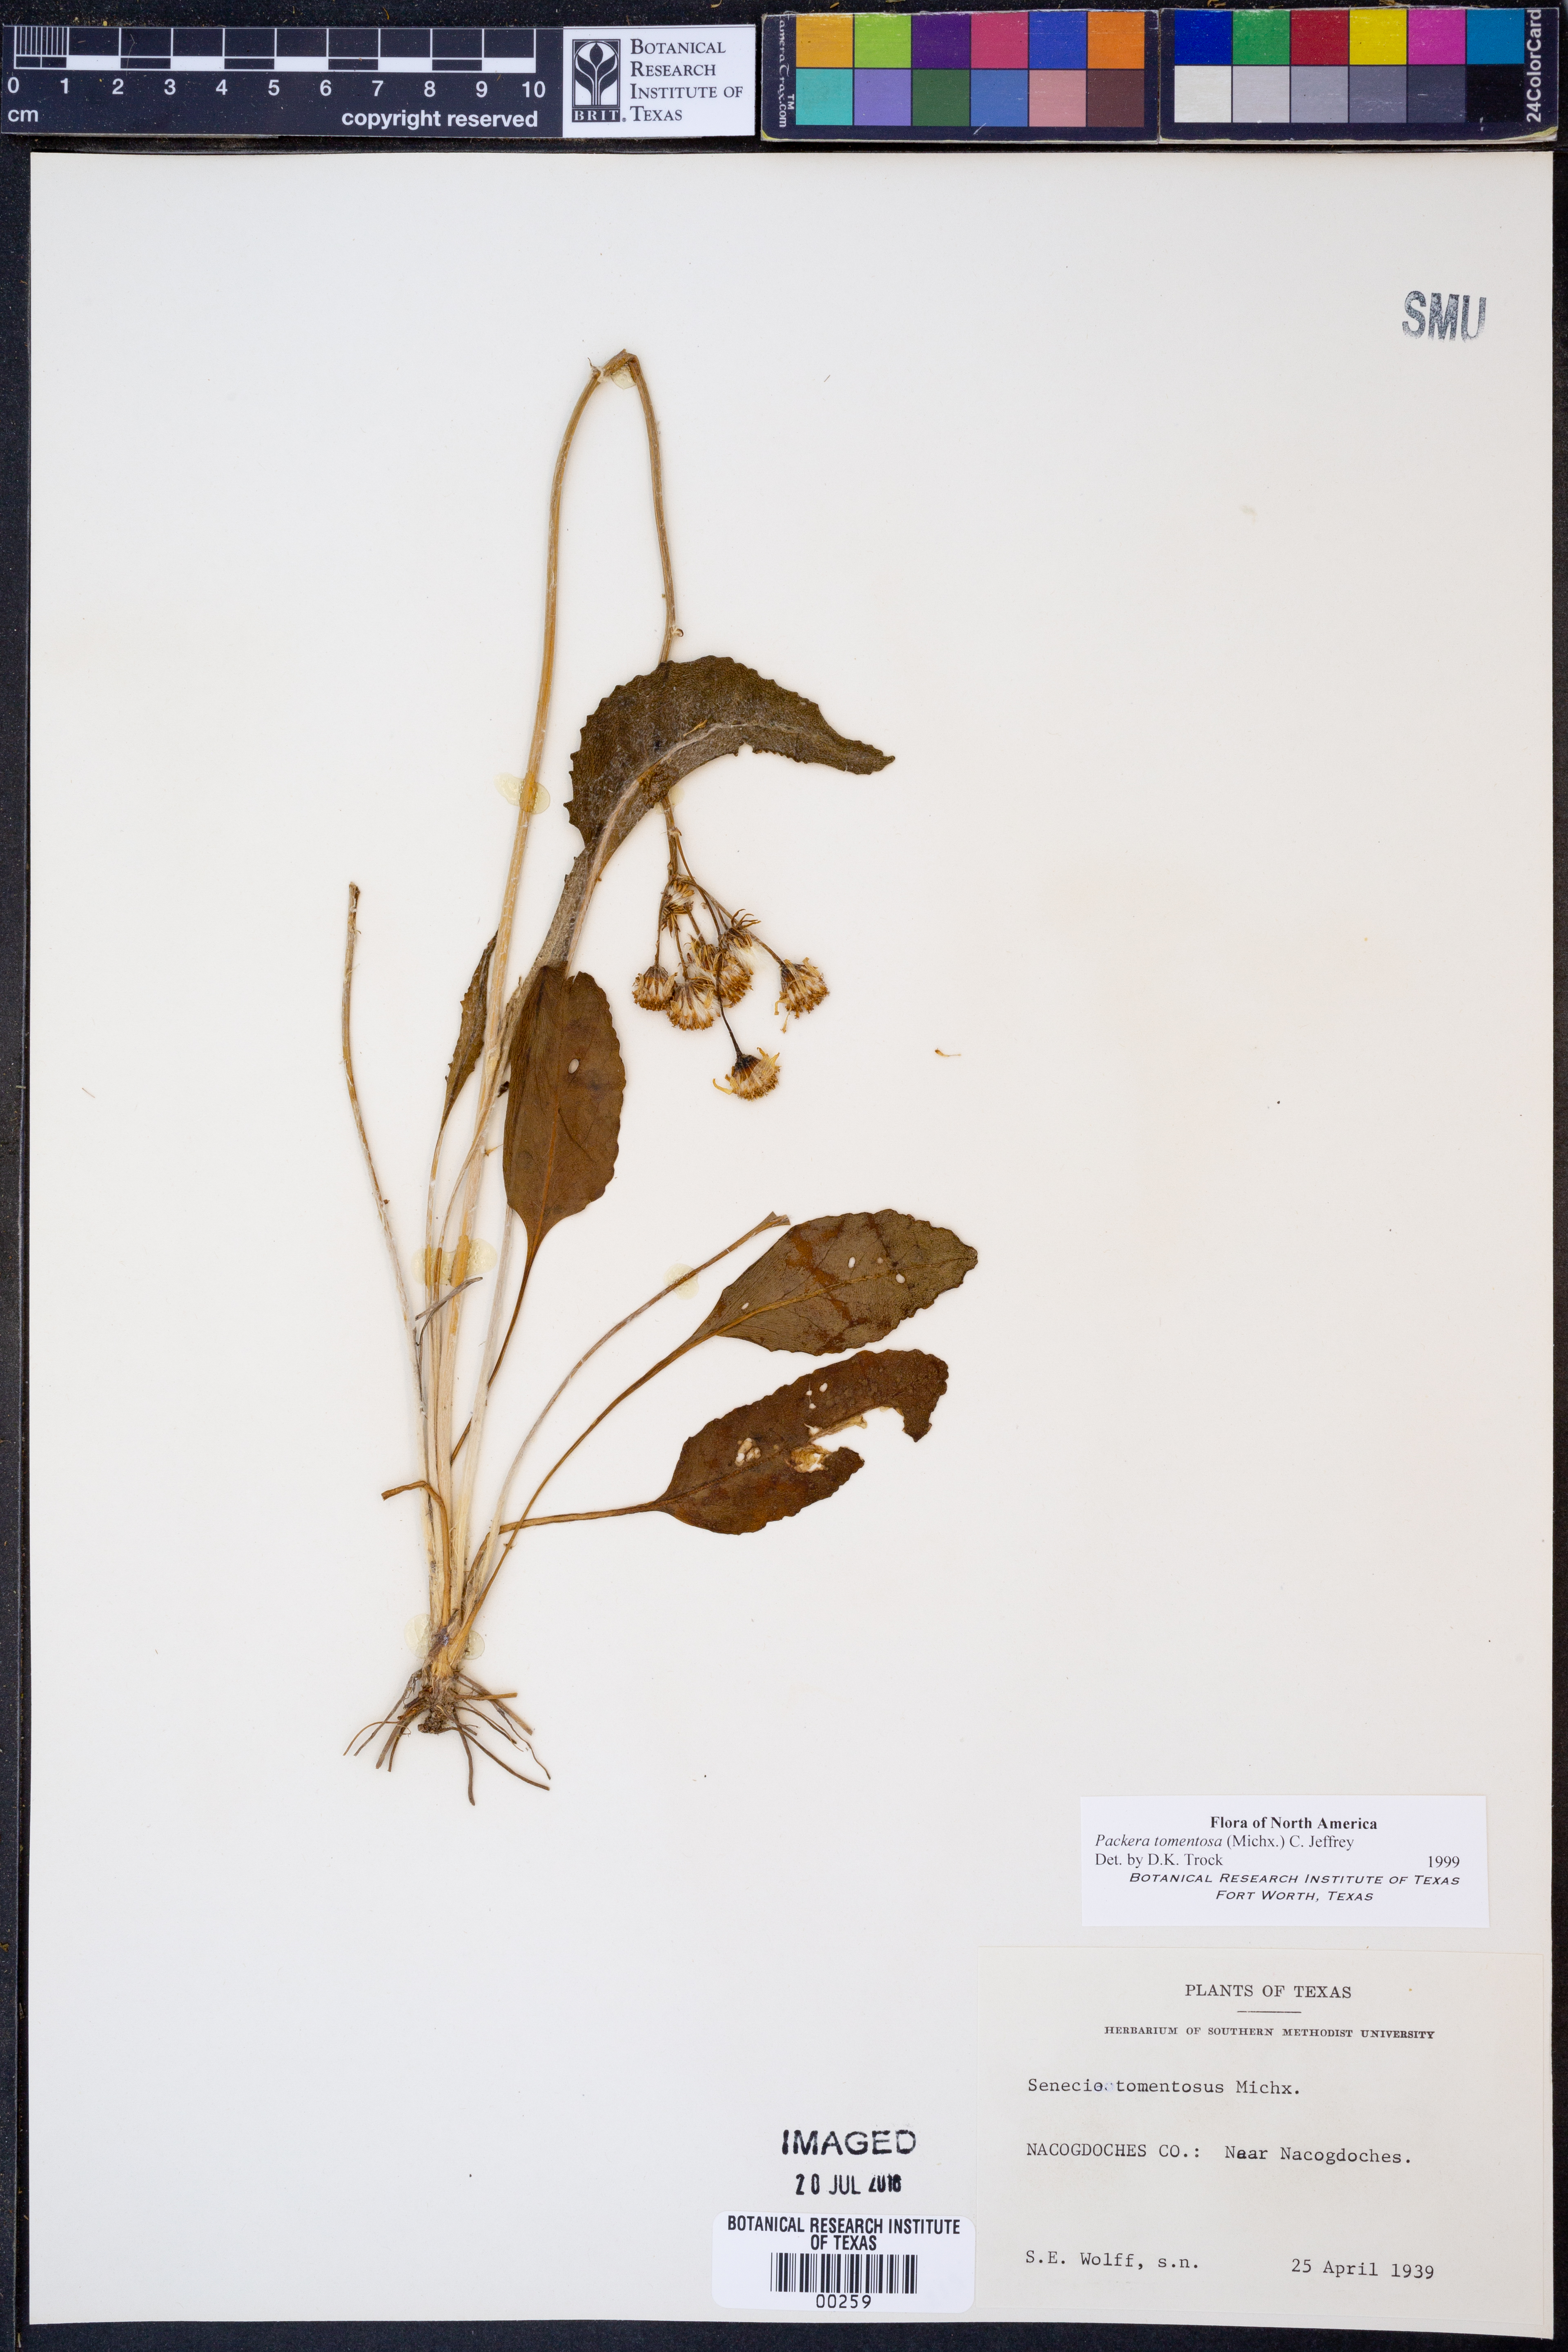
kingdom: Plantae
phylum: Tracheophyta
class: Magnoliopsida
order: Asterales
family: Asteraceae
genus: Packera
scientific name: Packera dubia
